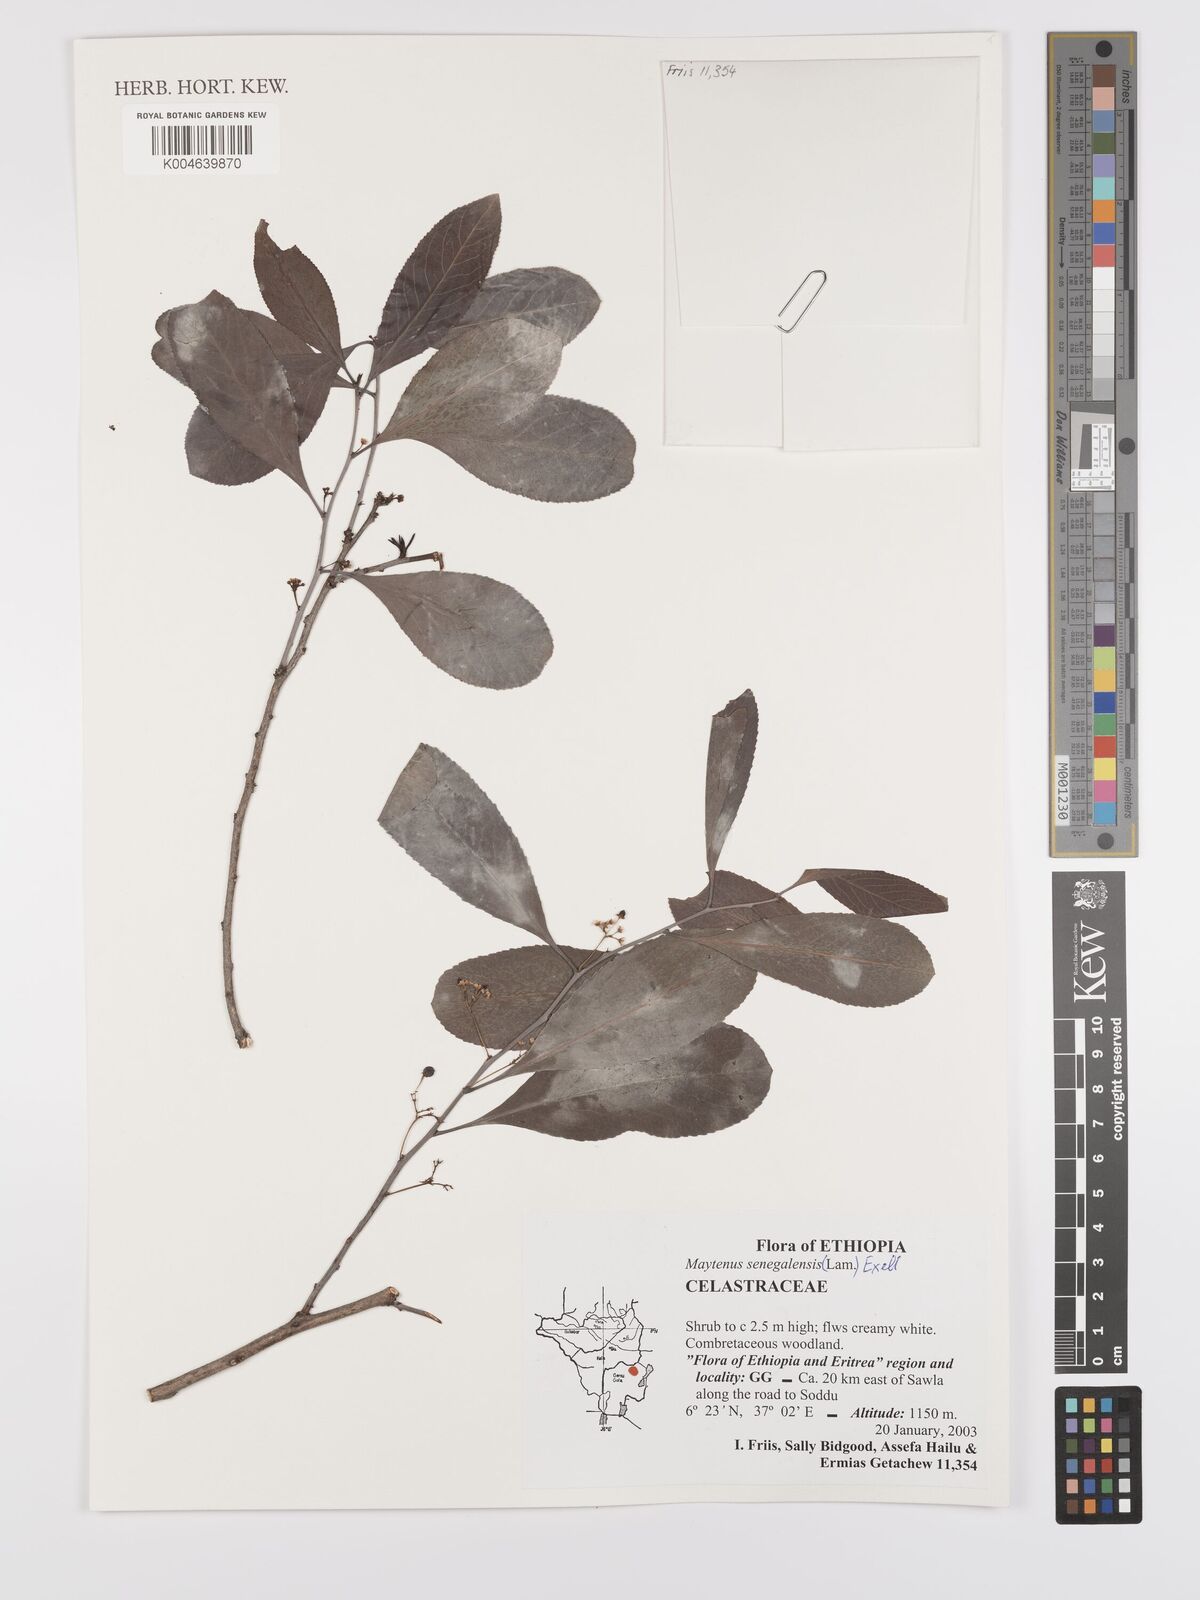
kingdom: Plantae
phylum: Tracheophyta
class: Magnoliopsida
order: Celastrales
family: Celastraceae
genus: Gymnosporia
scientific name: Gymnosporia senegalensis
